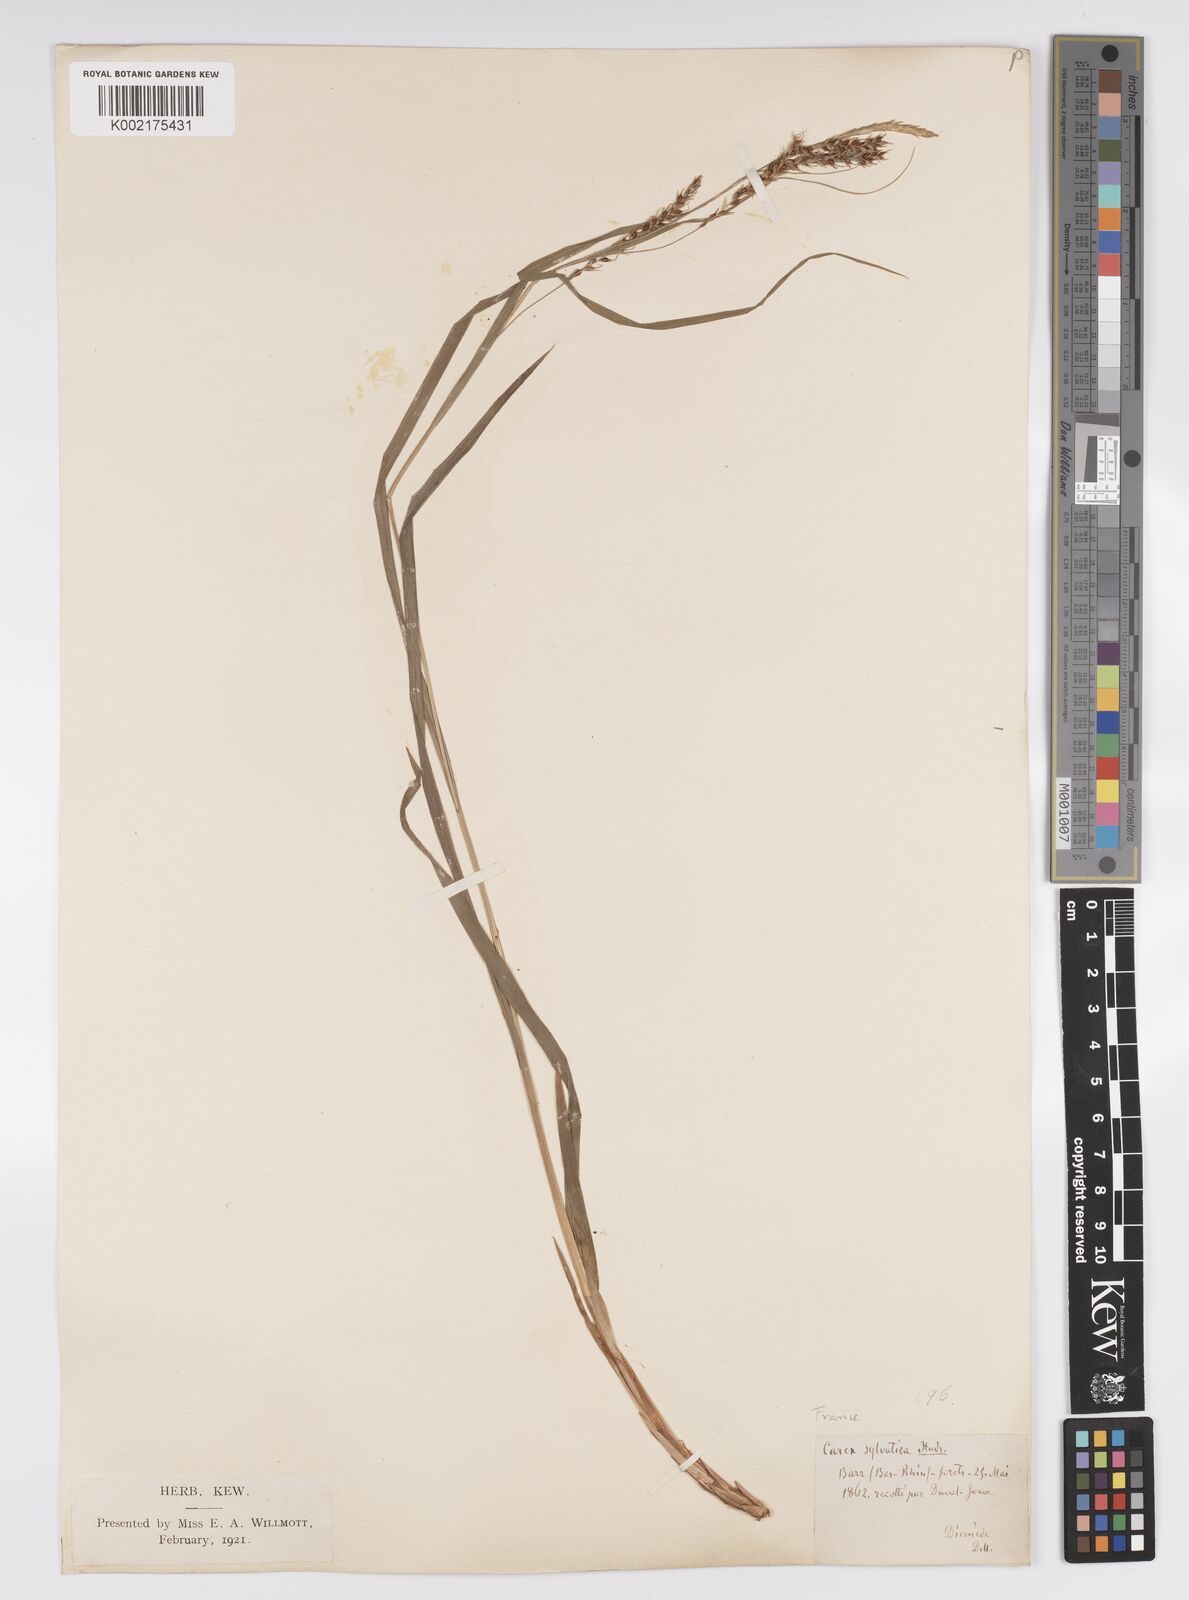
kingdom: Plantae
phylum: Tracheophyta
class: Liliopsida
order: Poales
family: Cyperaceae
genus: Carex
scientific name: Carex sylvatica
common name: Wood-sedge
